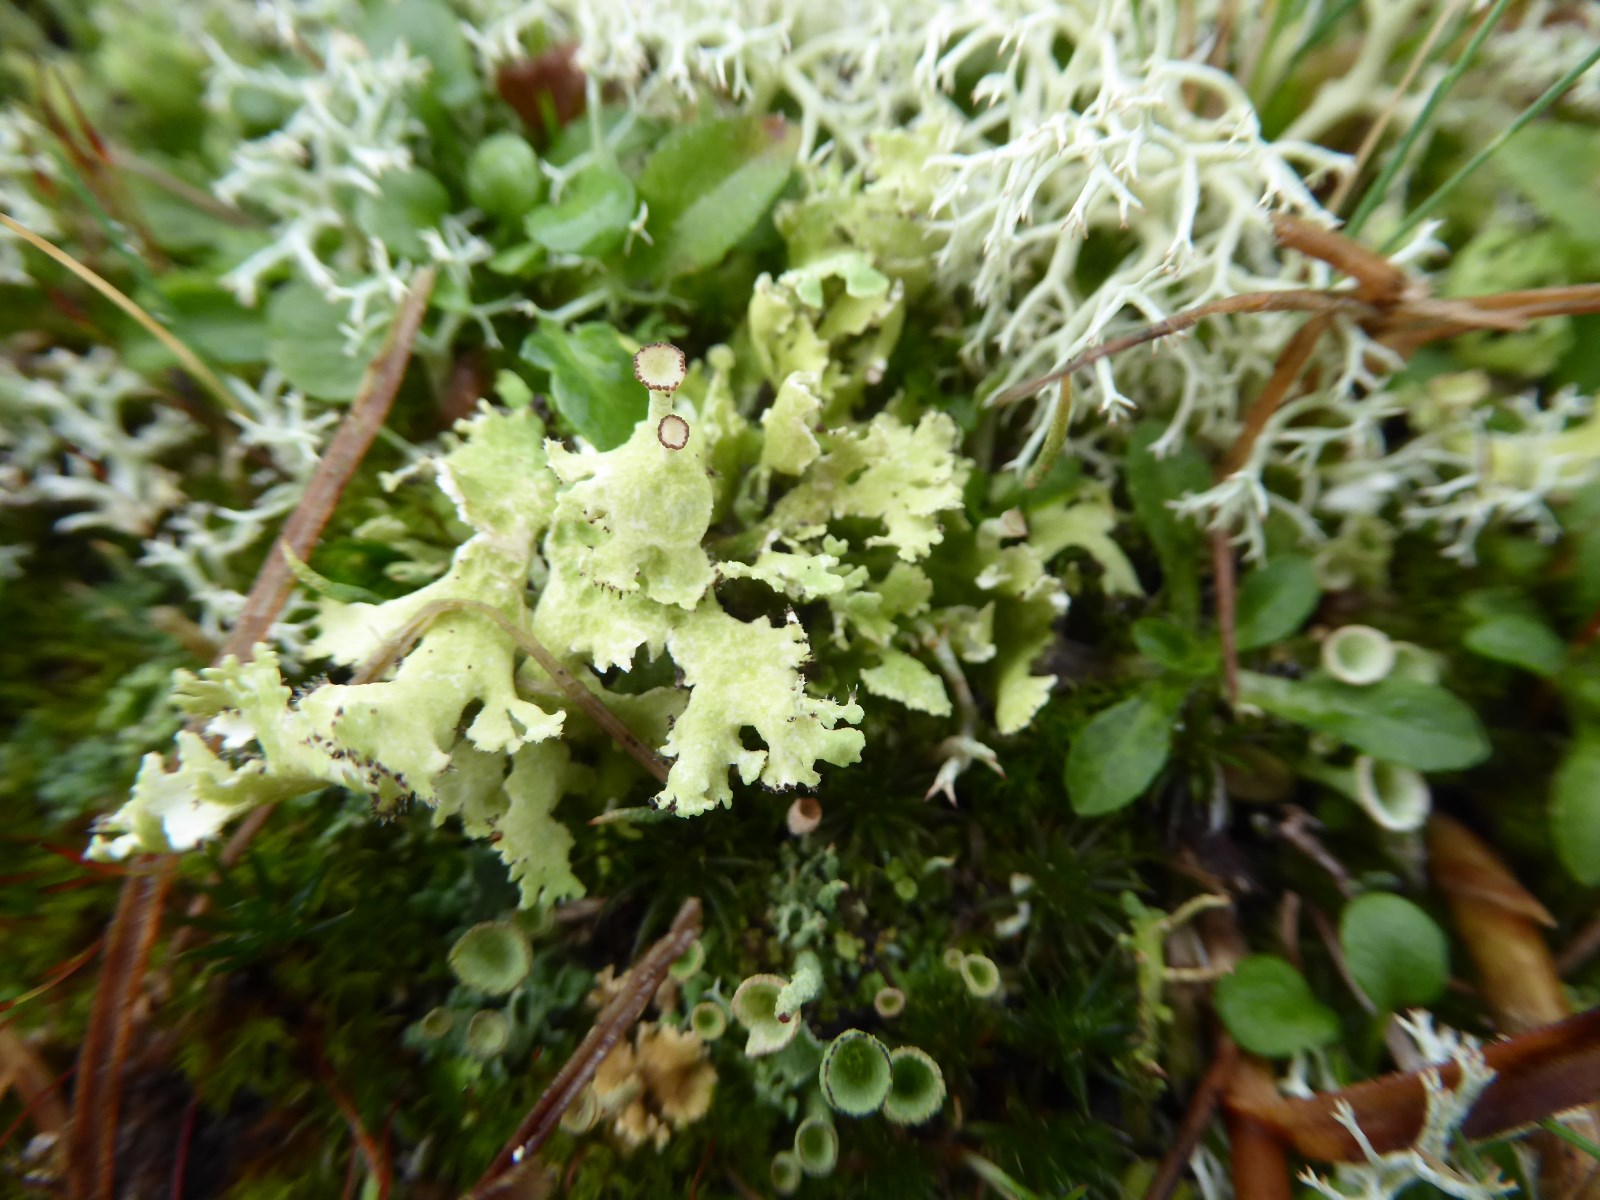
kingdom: Fungi
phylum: Ascomycota
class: Lecanoromycetes
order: Lecanorales
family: Cladoniaceae
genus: Cladonia
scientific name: Cladonia foliacea
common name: fliget bægerlav
